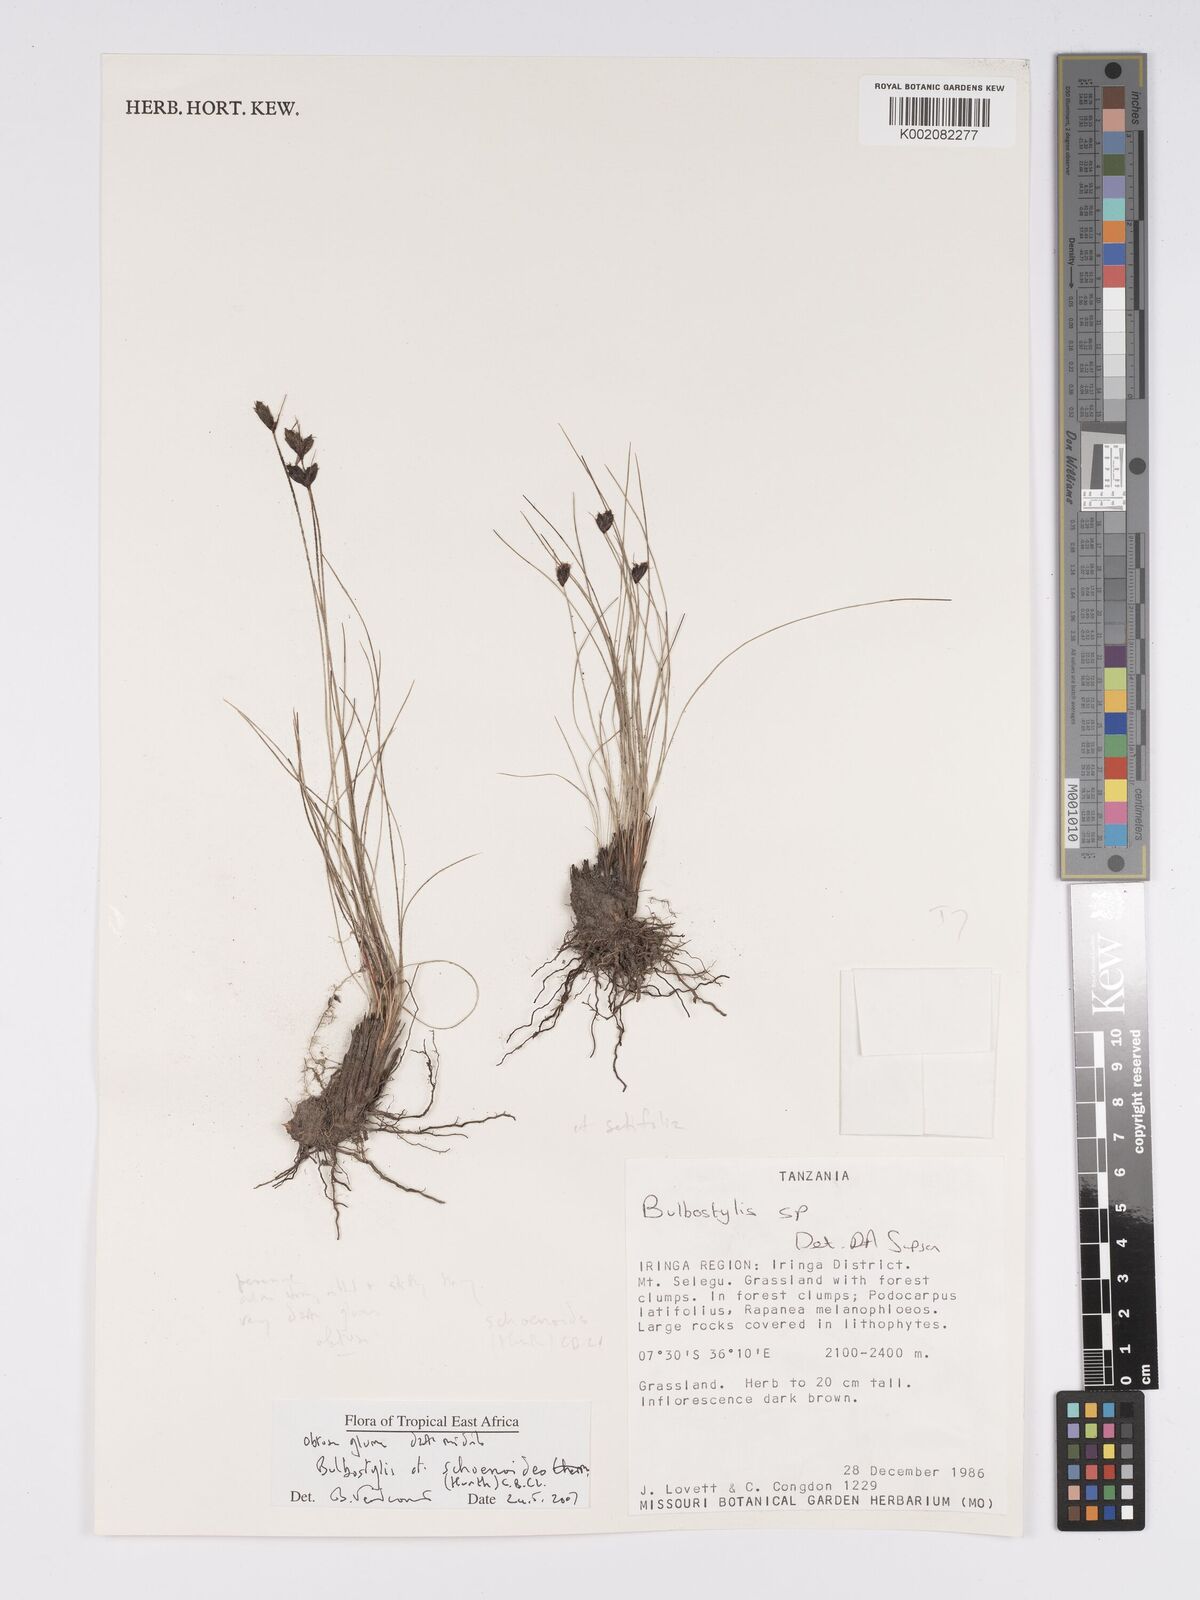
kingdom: Plantae
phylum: Tracheophyta
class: Liliopsida
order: Poales
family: Cyperaceae
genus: Bulbostylis
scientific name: Bulbostylis schoenoides
